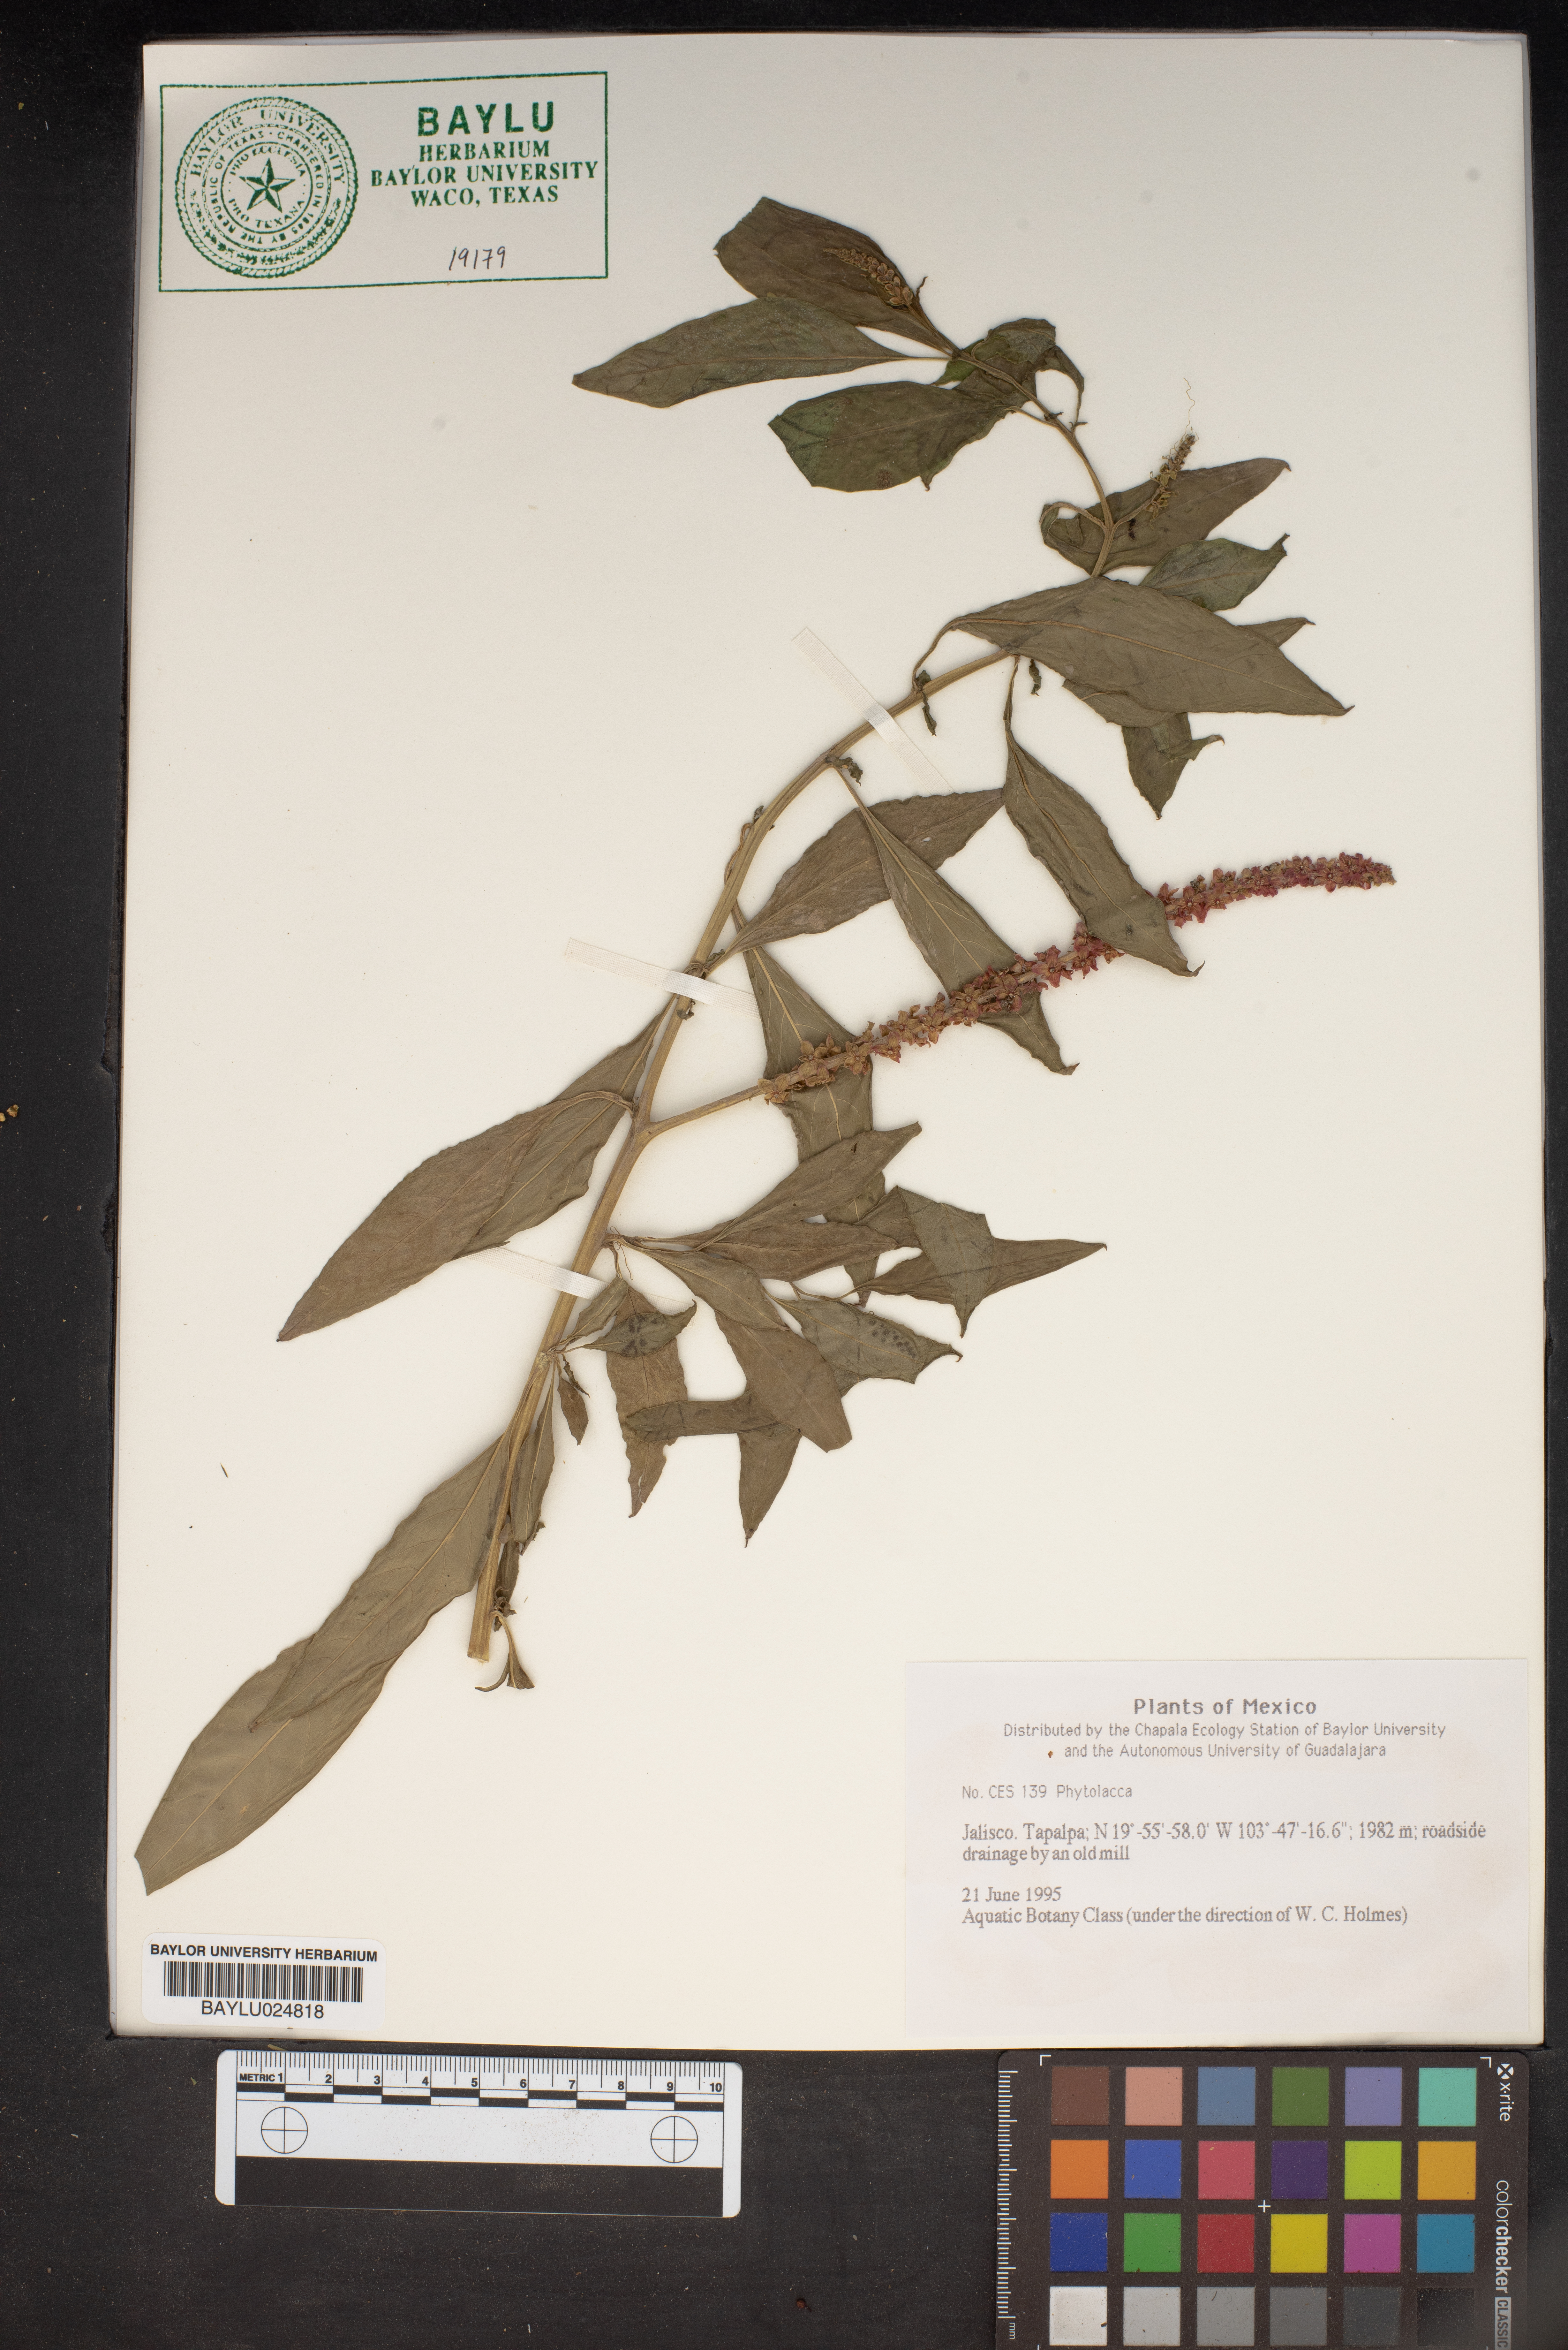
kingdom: Plantae
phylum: Tracheophyta
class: Magnoliopsida
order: Caryophyllales
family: Phytolaccaceae
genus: Phytolacca
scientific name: Phytolacca
